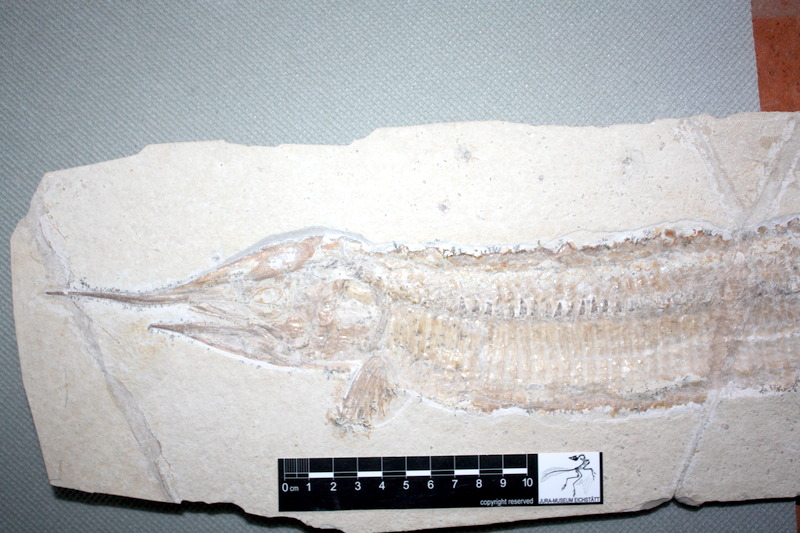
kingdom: Animalia
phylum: Chordata
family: Aspidorhynchidae
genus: Aspidorhynchus
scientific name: Aspidorhynchus acutirostris
